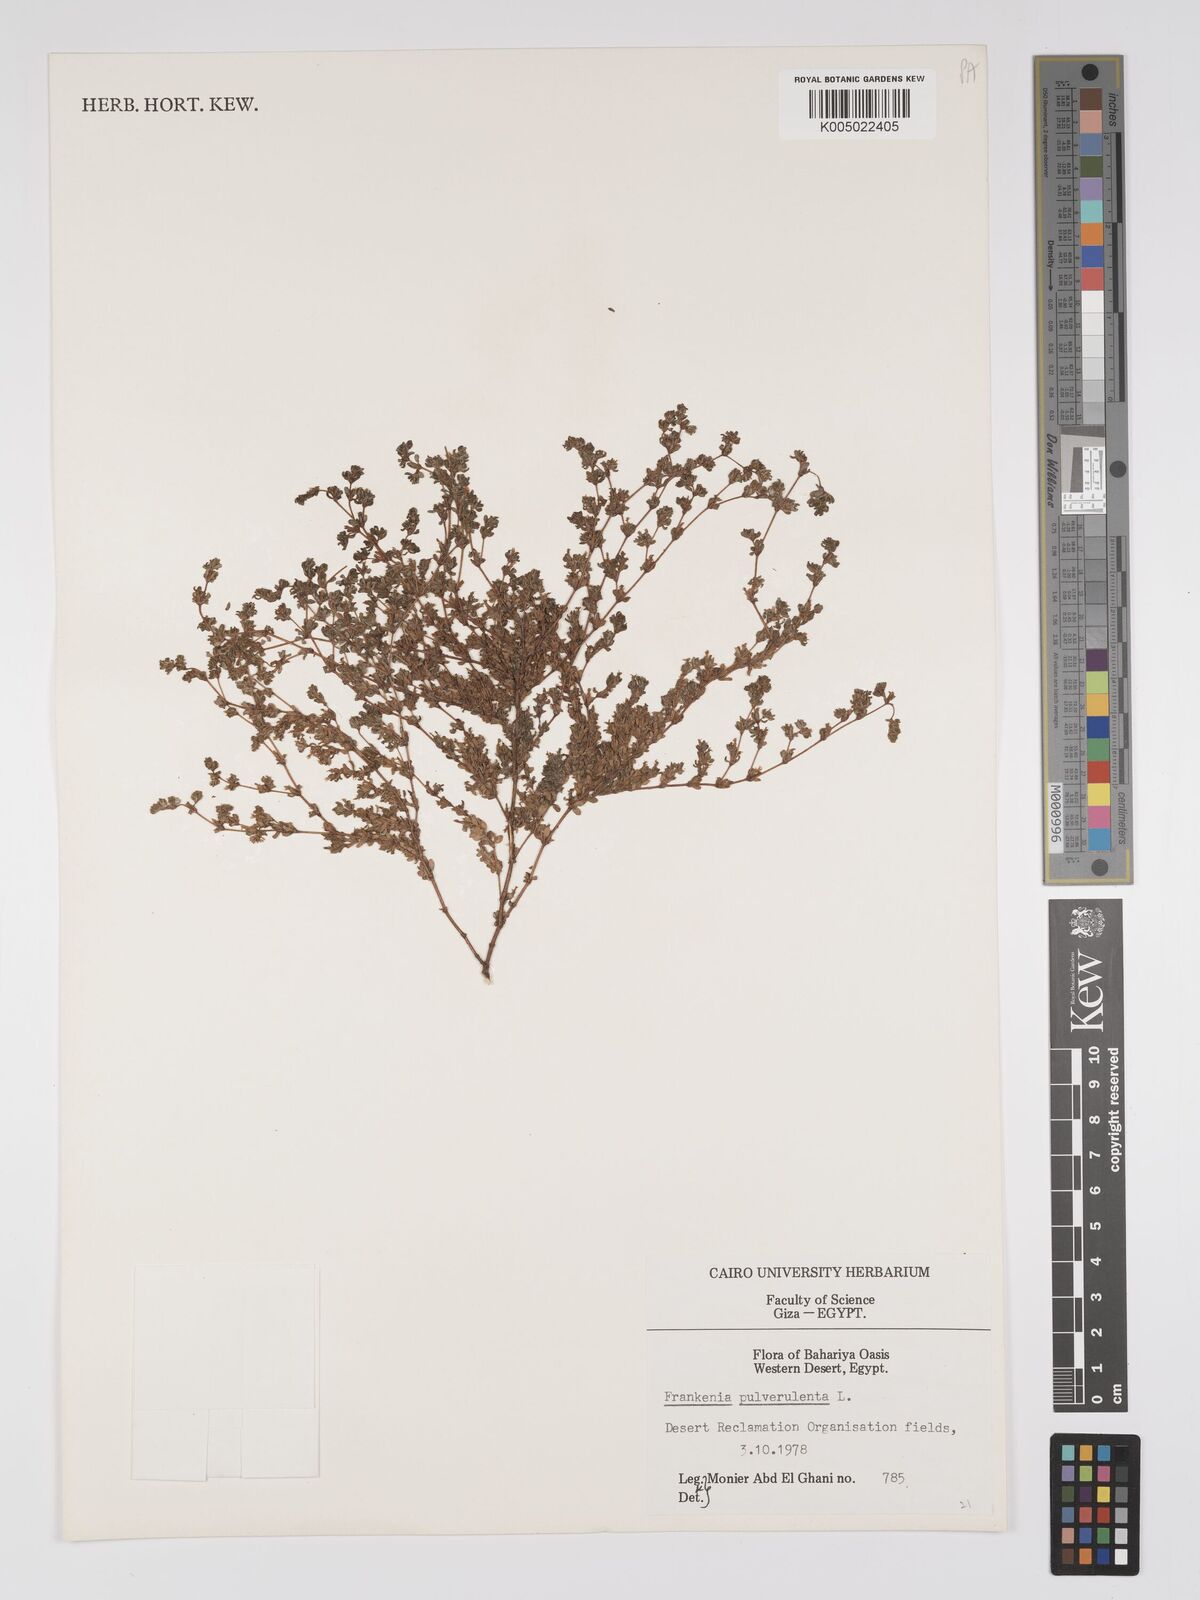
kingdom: Plantae
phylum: Tracheophyta
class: Magnoliopsida
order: Caryophyllales
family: Frankeniaceae
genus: Frankenia
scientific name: Frankenia pulverulenta
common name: European seaheath
